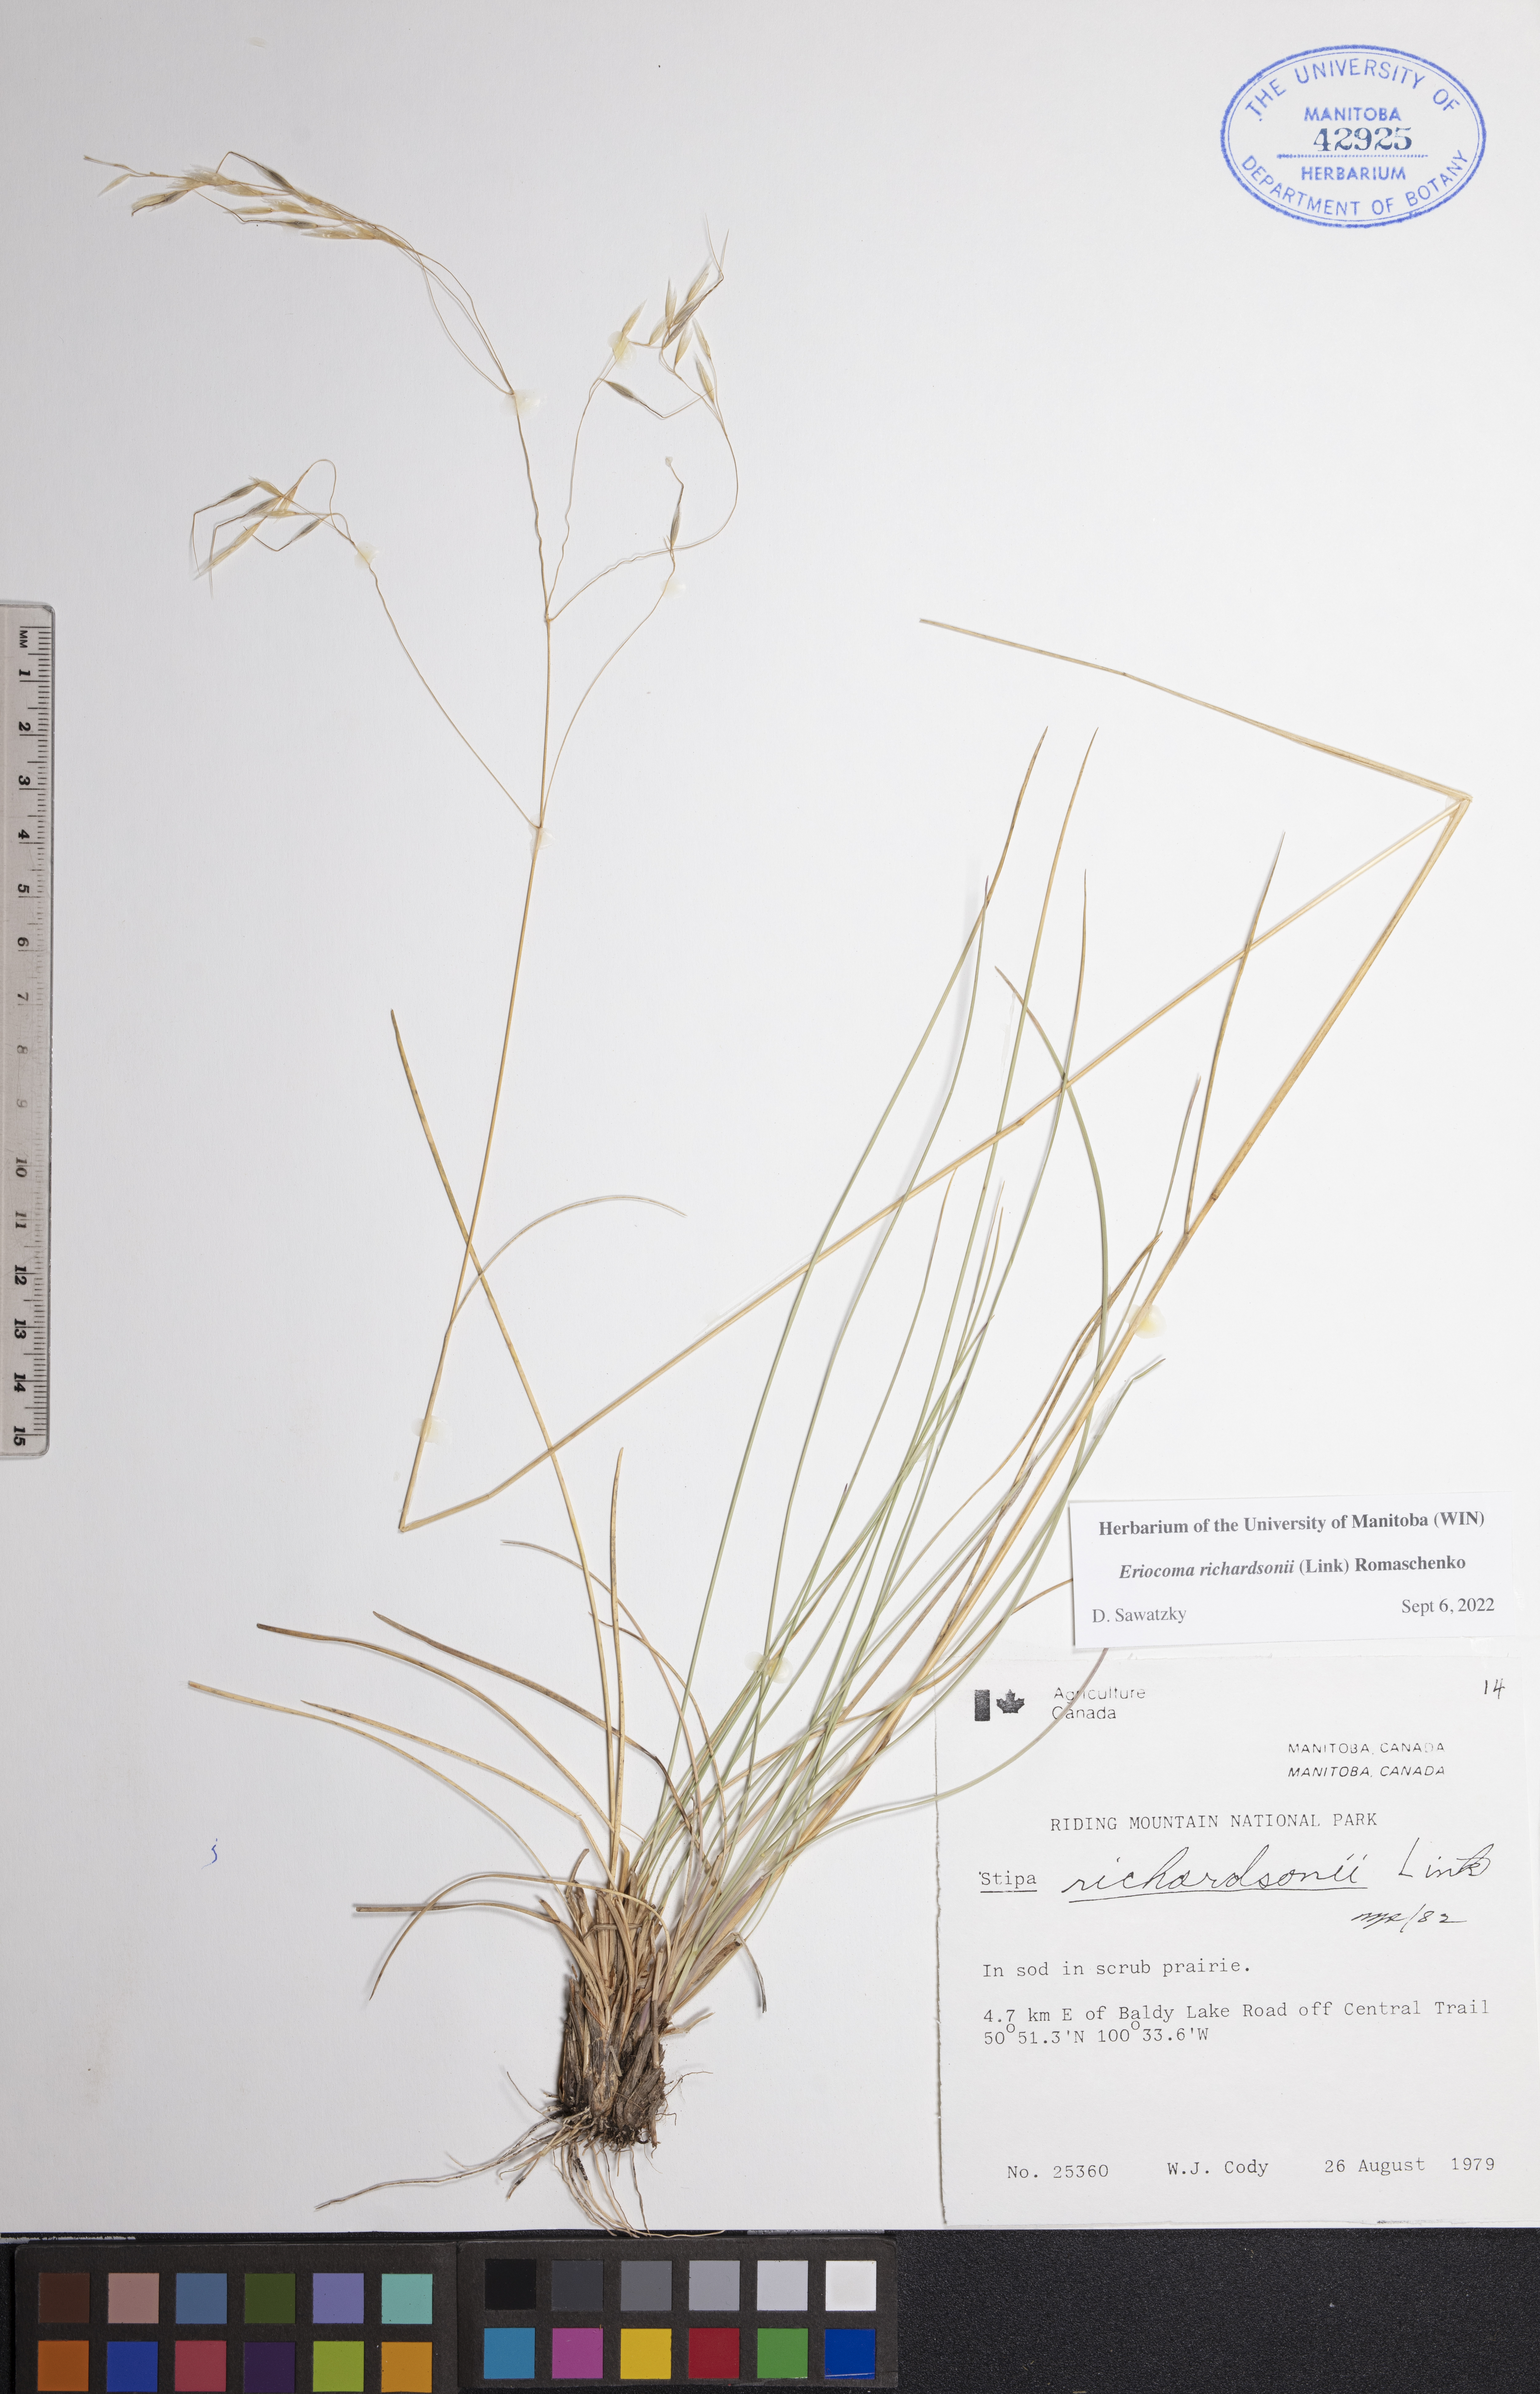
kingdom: Plantae
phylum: Tracheophyta
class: Liliopsida
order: Poales
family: Poaceae
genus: Eriocoma
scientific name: Eriocoma richardsonii
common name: Richardson's needlegrass
